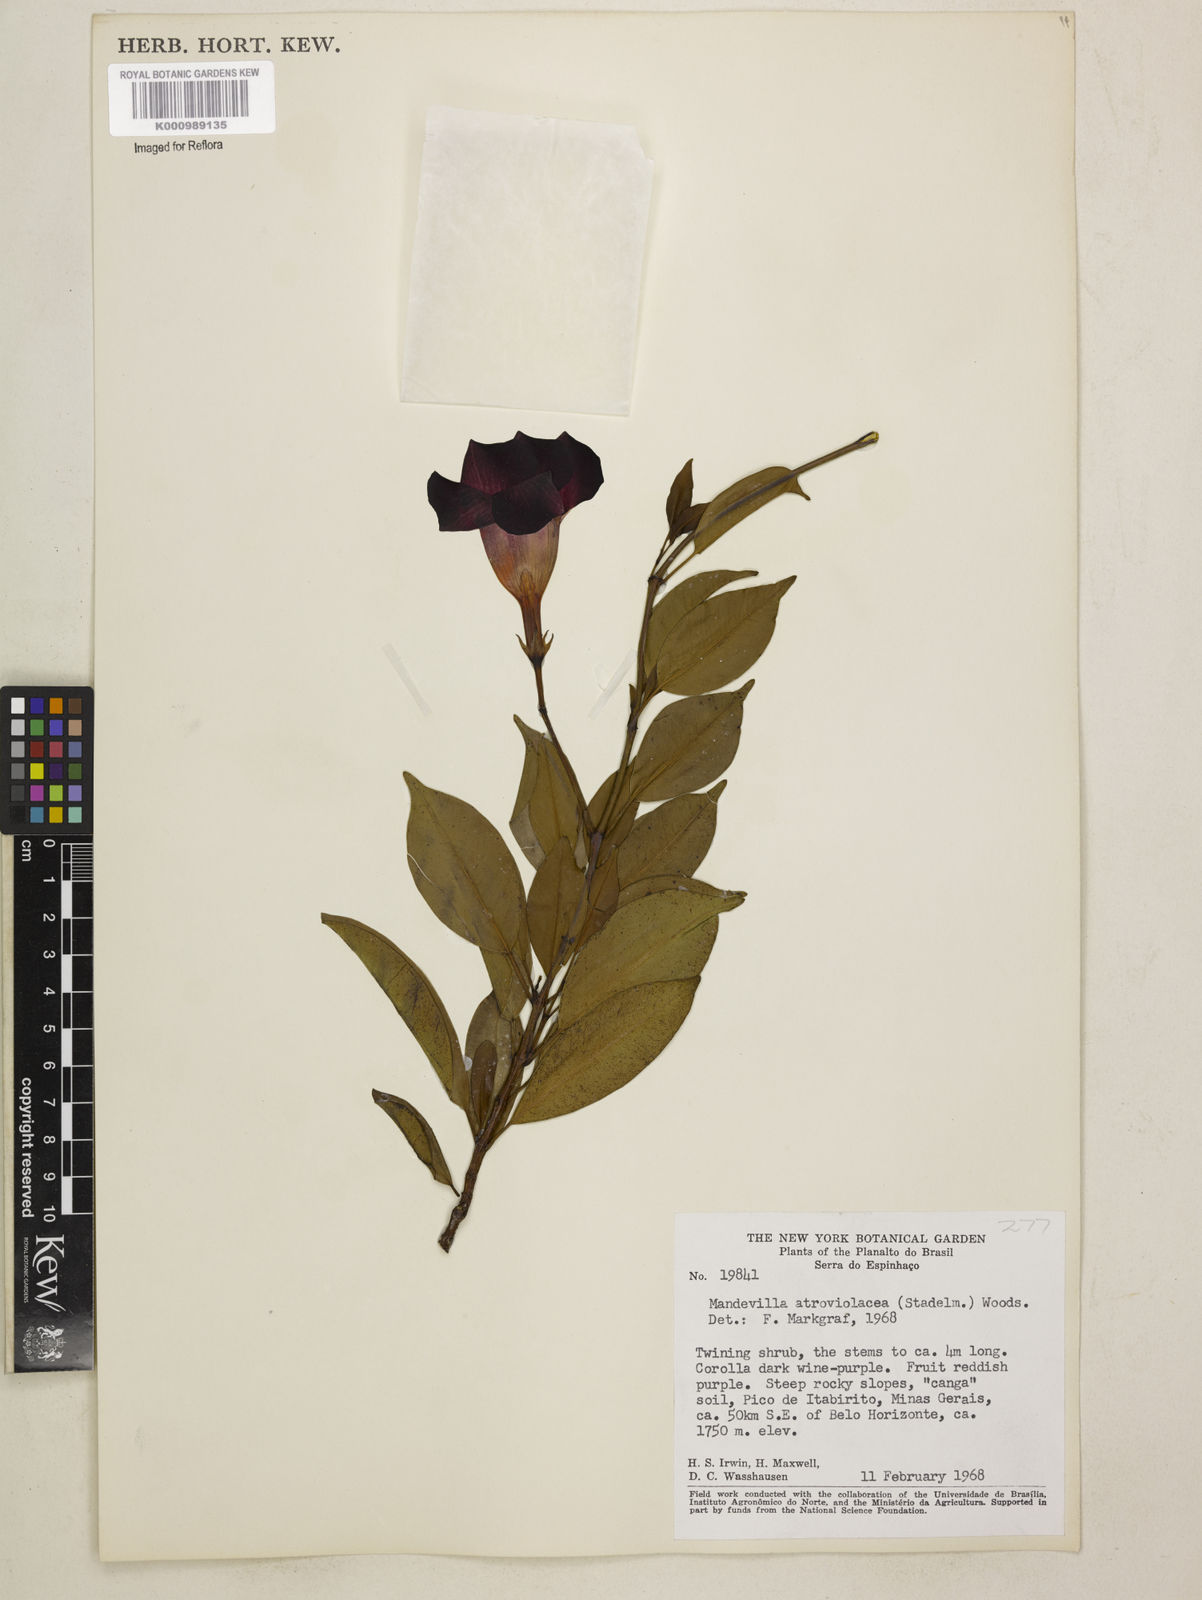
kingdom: Plantae
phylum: Tracheophyta
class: Magnoliopsida
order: Gentianales
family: Apocynaceae
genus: Mandevilla
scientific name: Mandevilla atroviolacea
